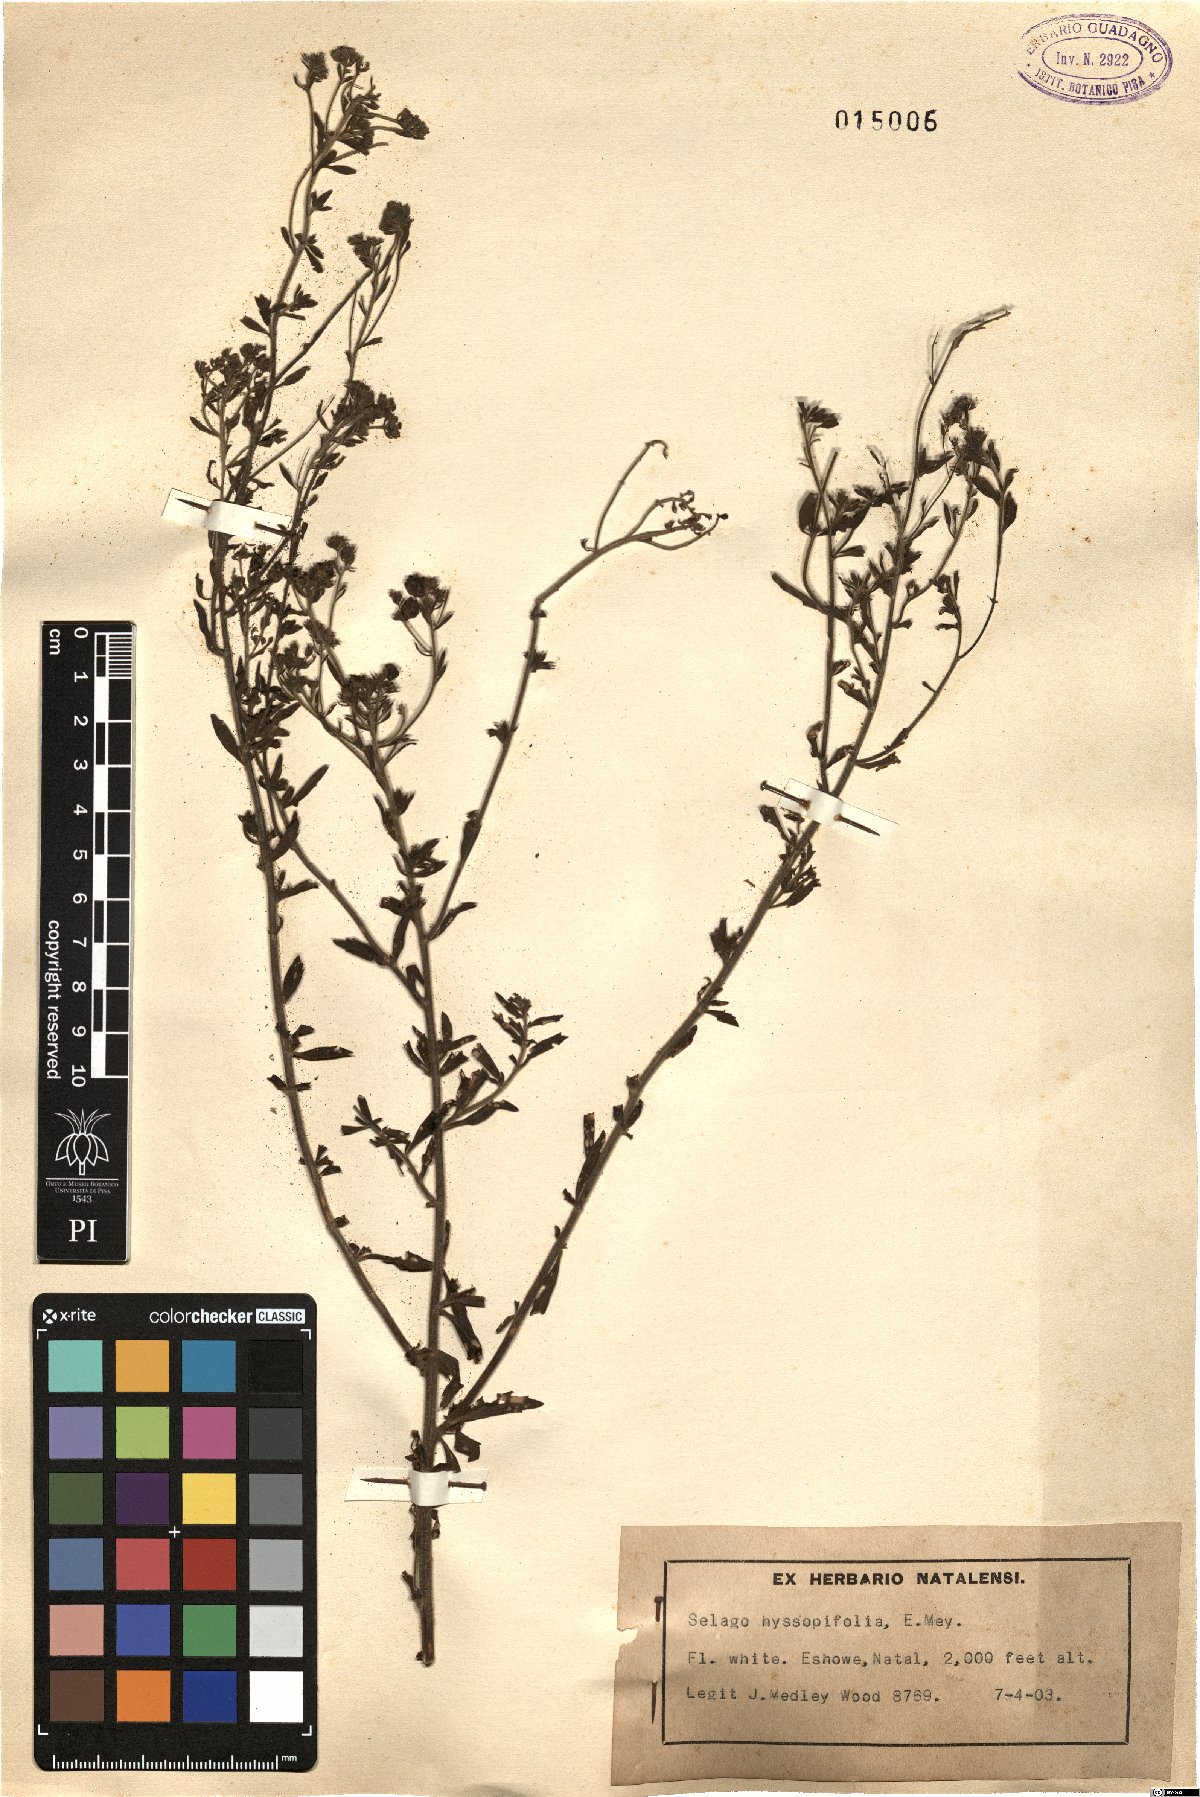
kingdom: Plantae
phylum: Tracheophyta
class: Magnoliopsida
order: Lamiales
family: Scrophulariaceae
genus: Selago
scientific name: Selago hyssopifolia
